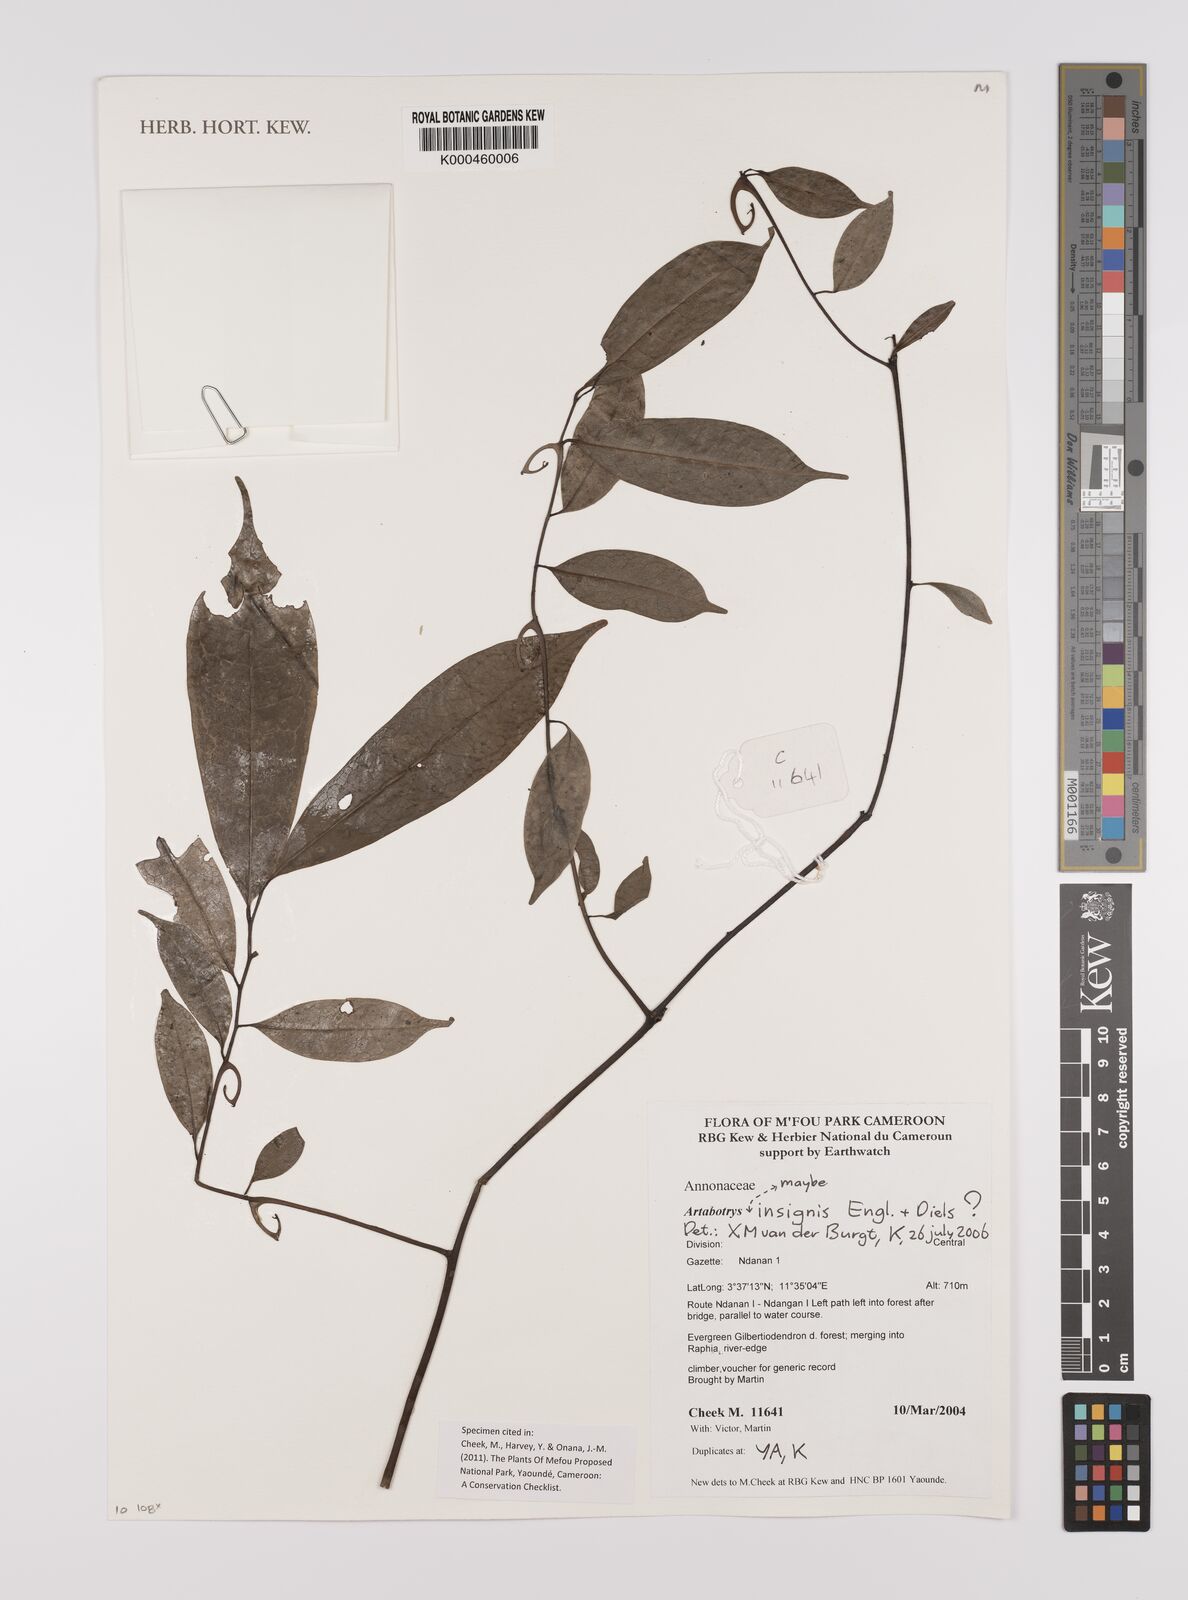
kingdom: Plantae
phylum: Tracheophyta
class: Magnoliopsida
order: Magnoliales
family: Annonaceae
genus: Artabotrys
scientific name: Artabotrys insignis
